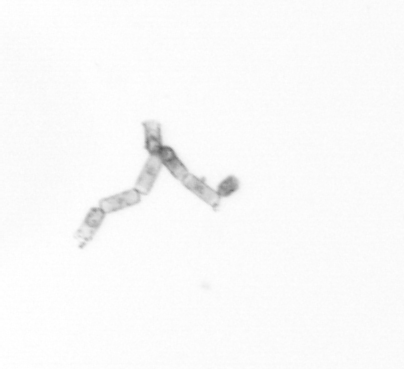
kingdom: Chromista
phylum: Ochrophyta
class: Bacillariophyceae
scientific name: Bacillariophyceae
